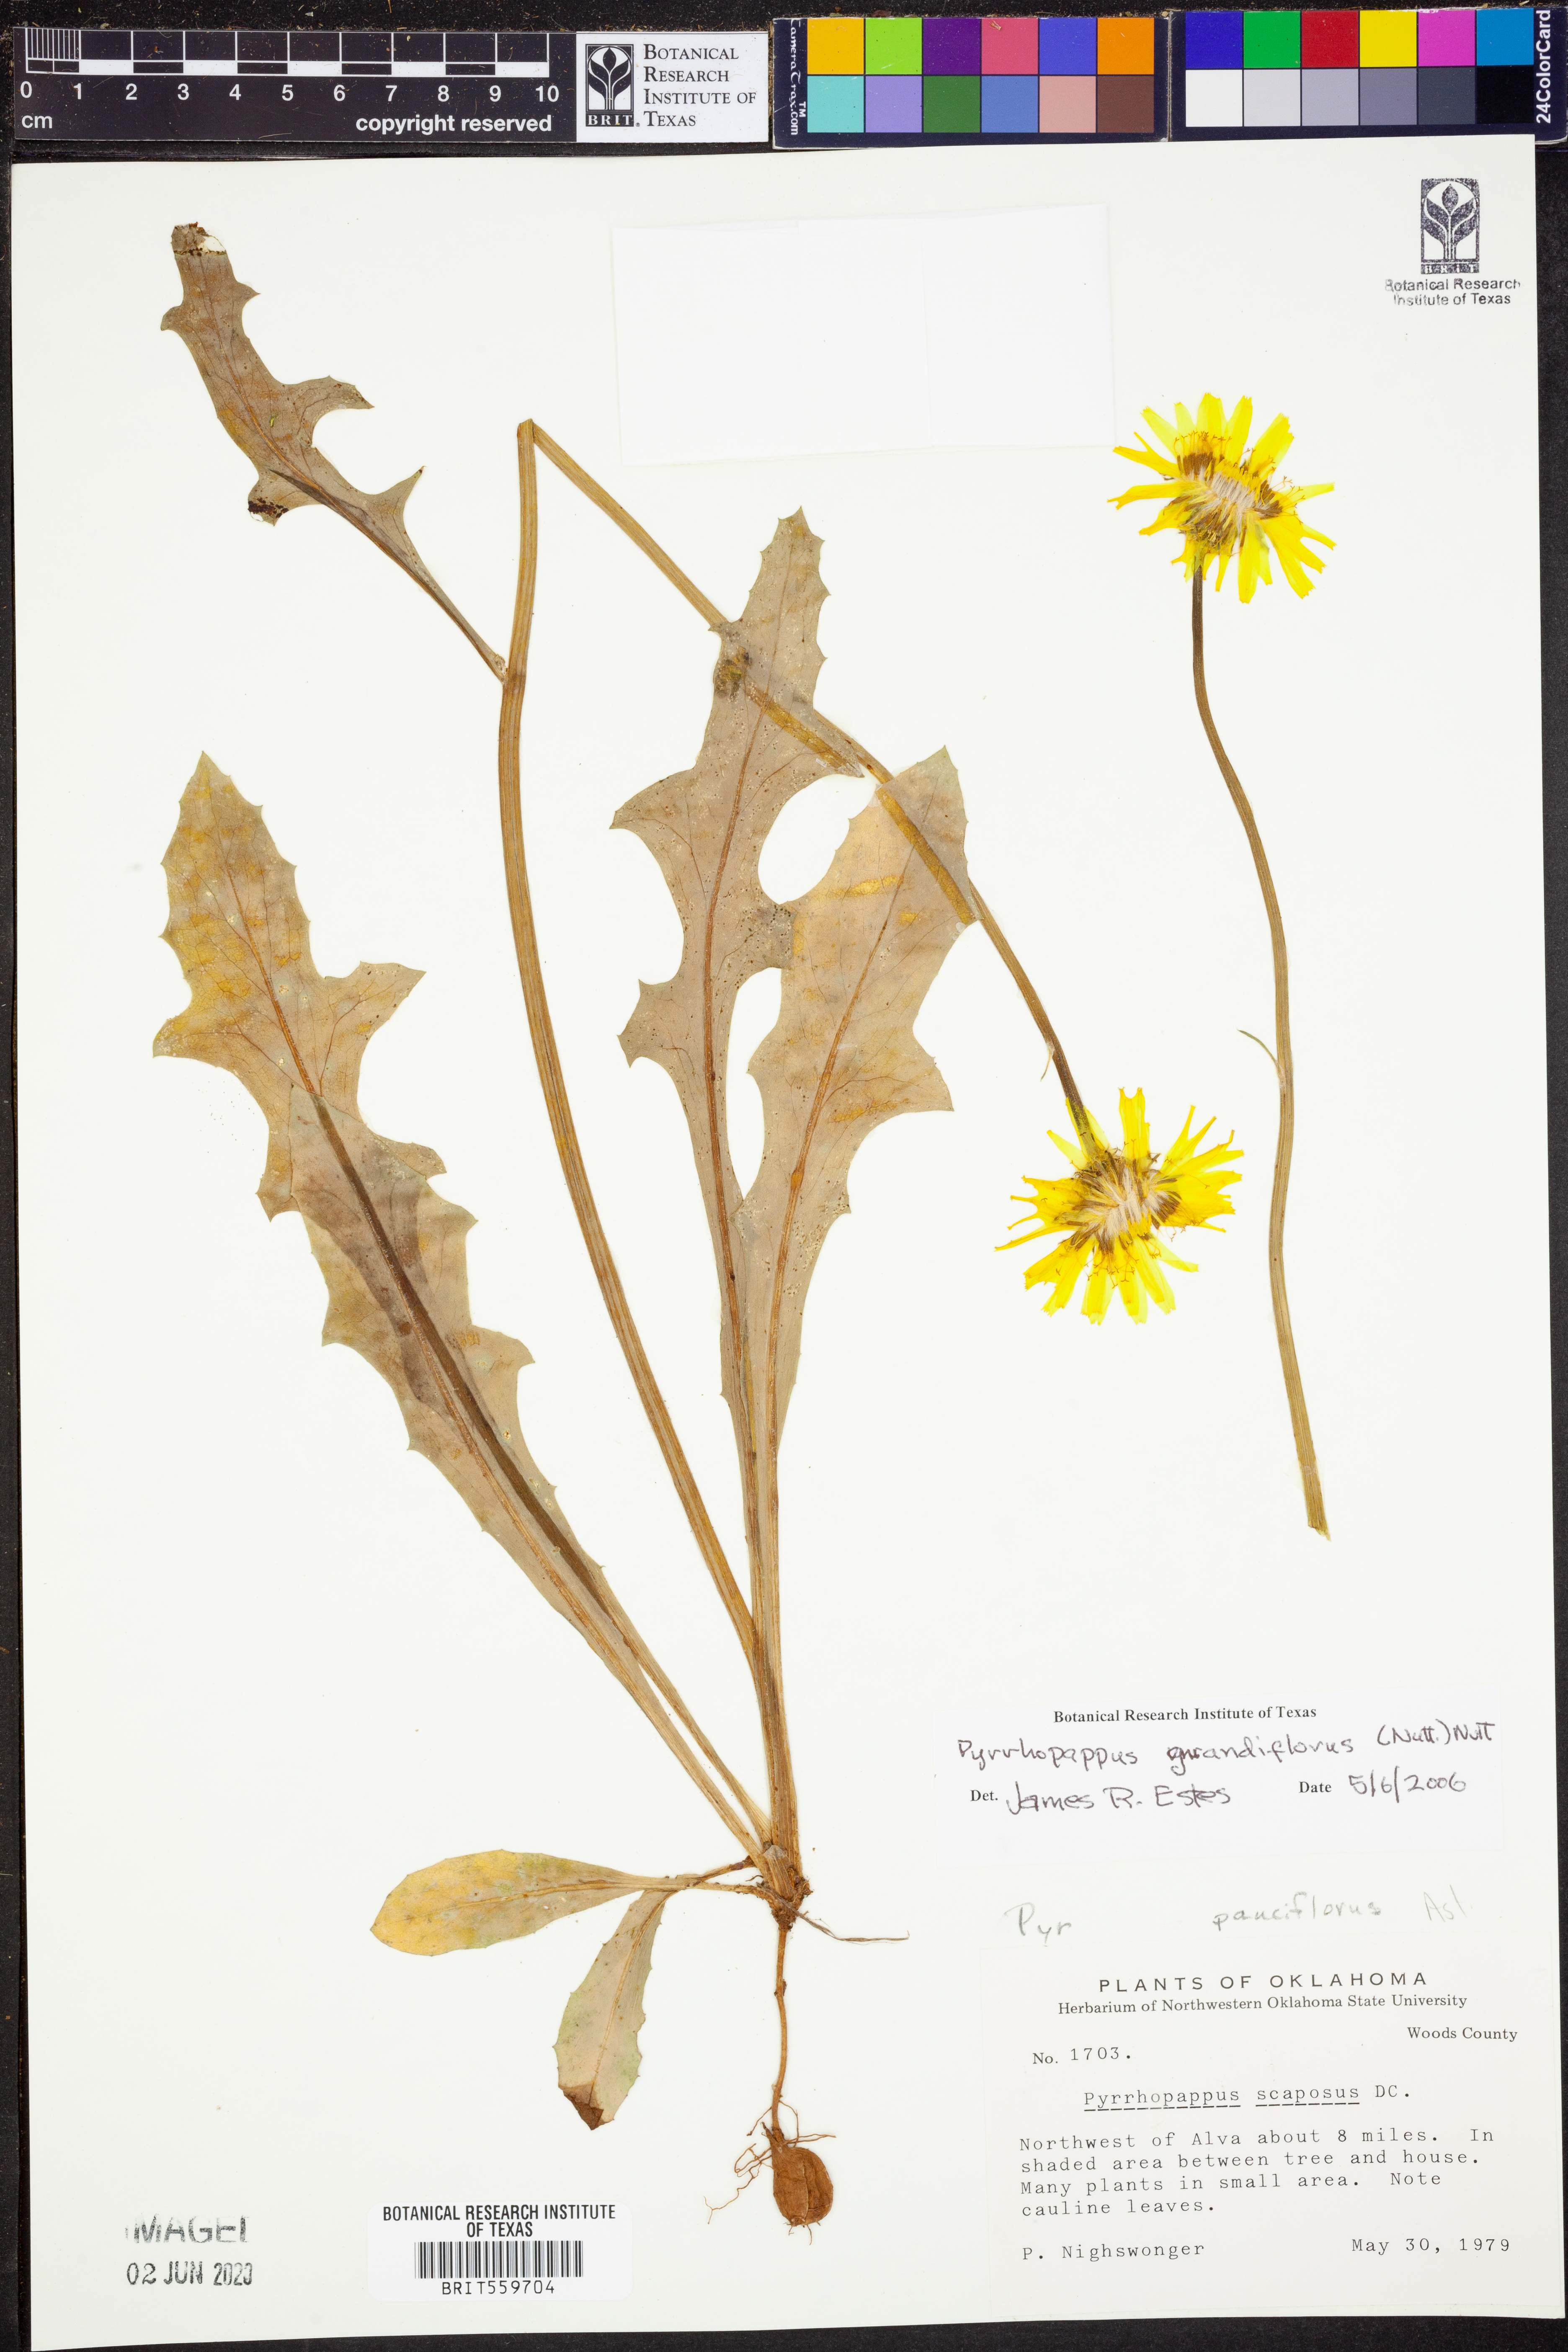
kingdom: Plantae
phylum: Tracheophyta
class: Magnoliopsida
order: Asterales
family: Asteraceae
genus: Pyrrhopappus
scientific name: Pyrrhopappus grandiflorus
